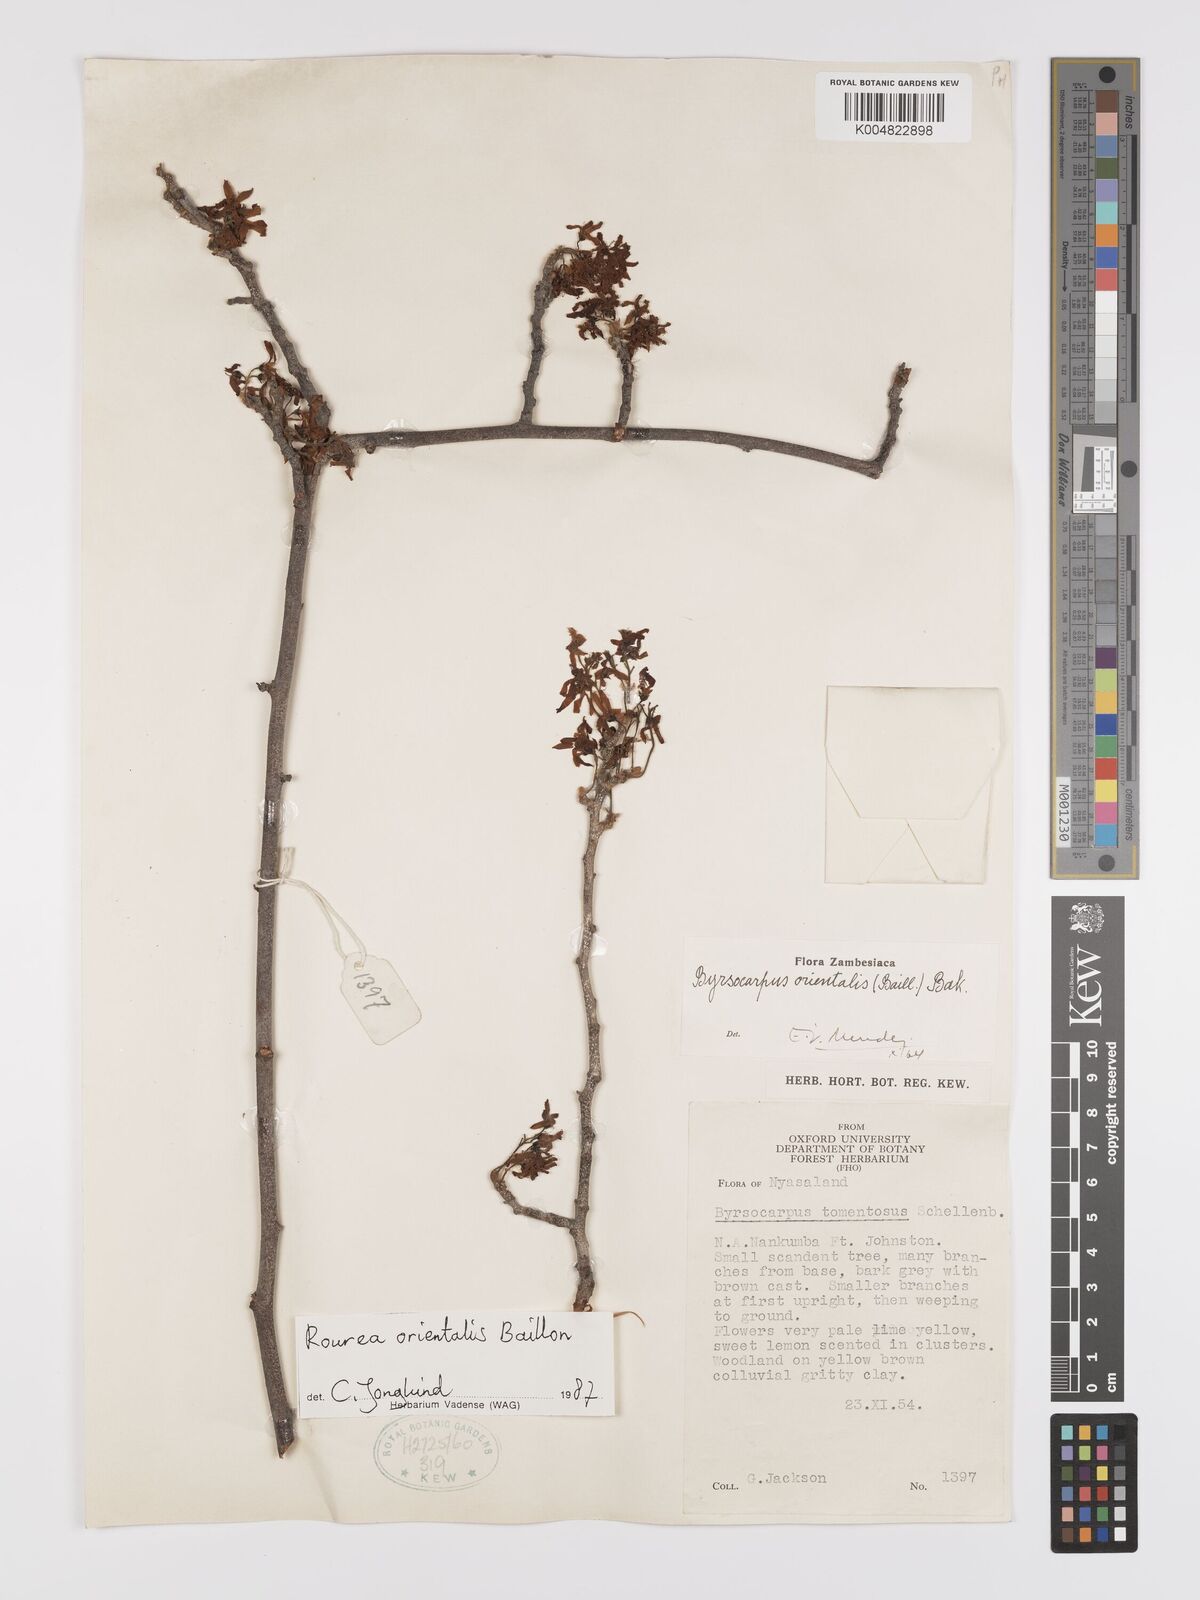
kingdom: Plantae
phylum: Tracheophyta
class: Magnoliopsida
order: Oxalidales
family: Connaraceae
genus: Rourea
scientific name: Rourea orientalis
